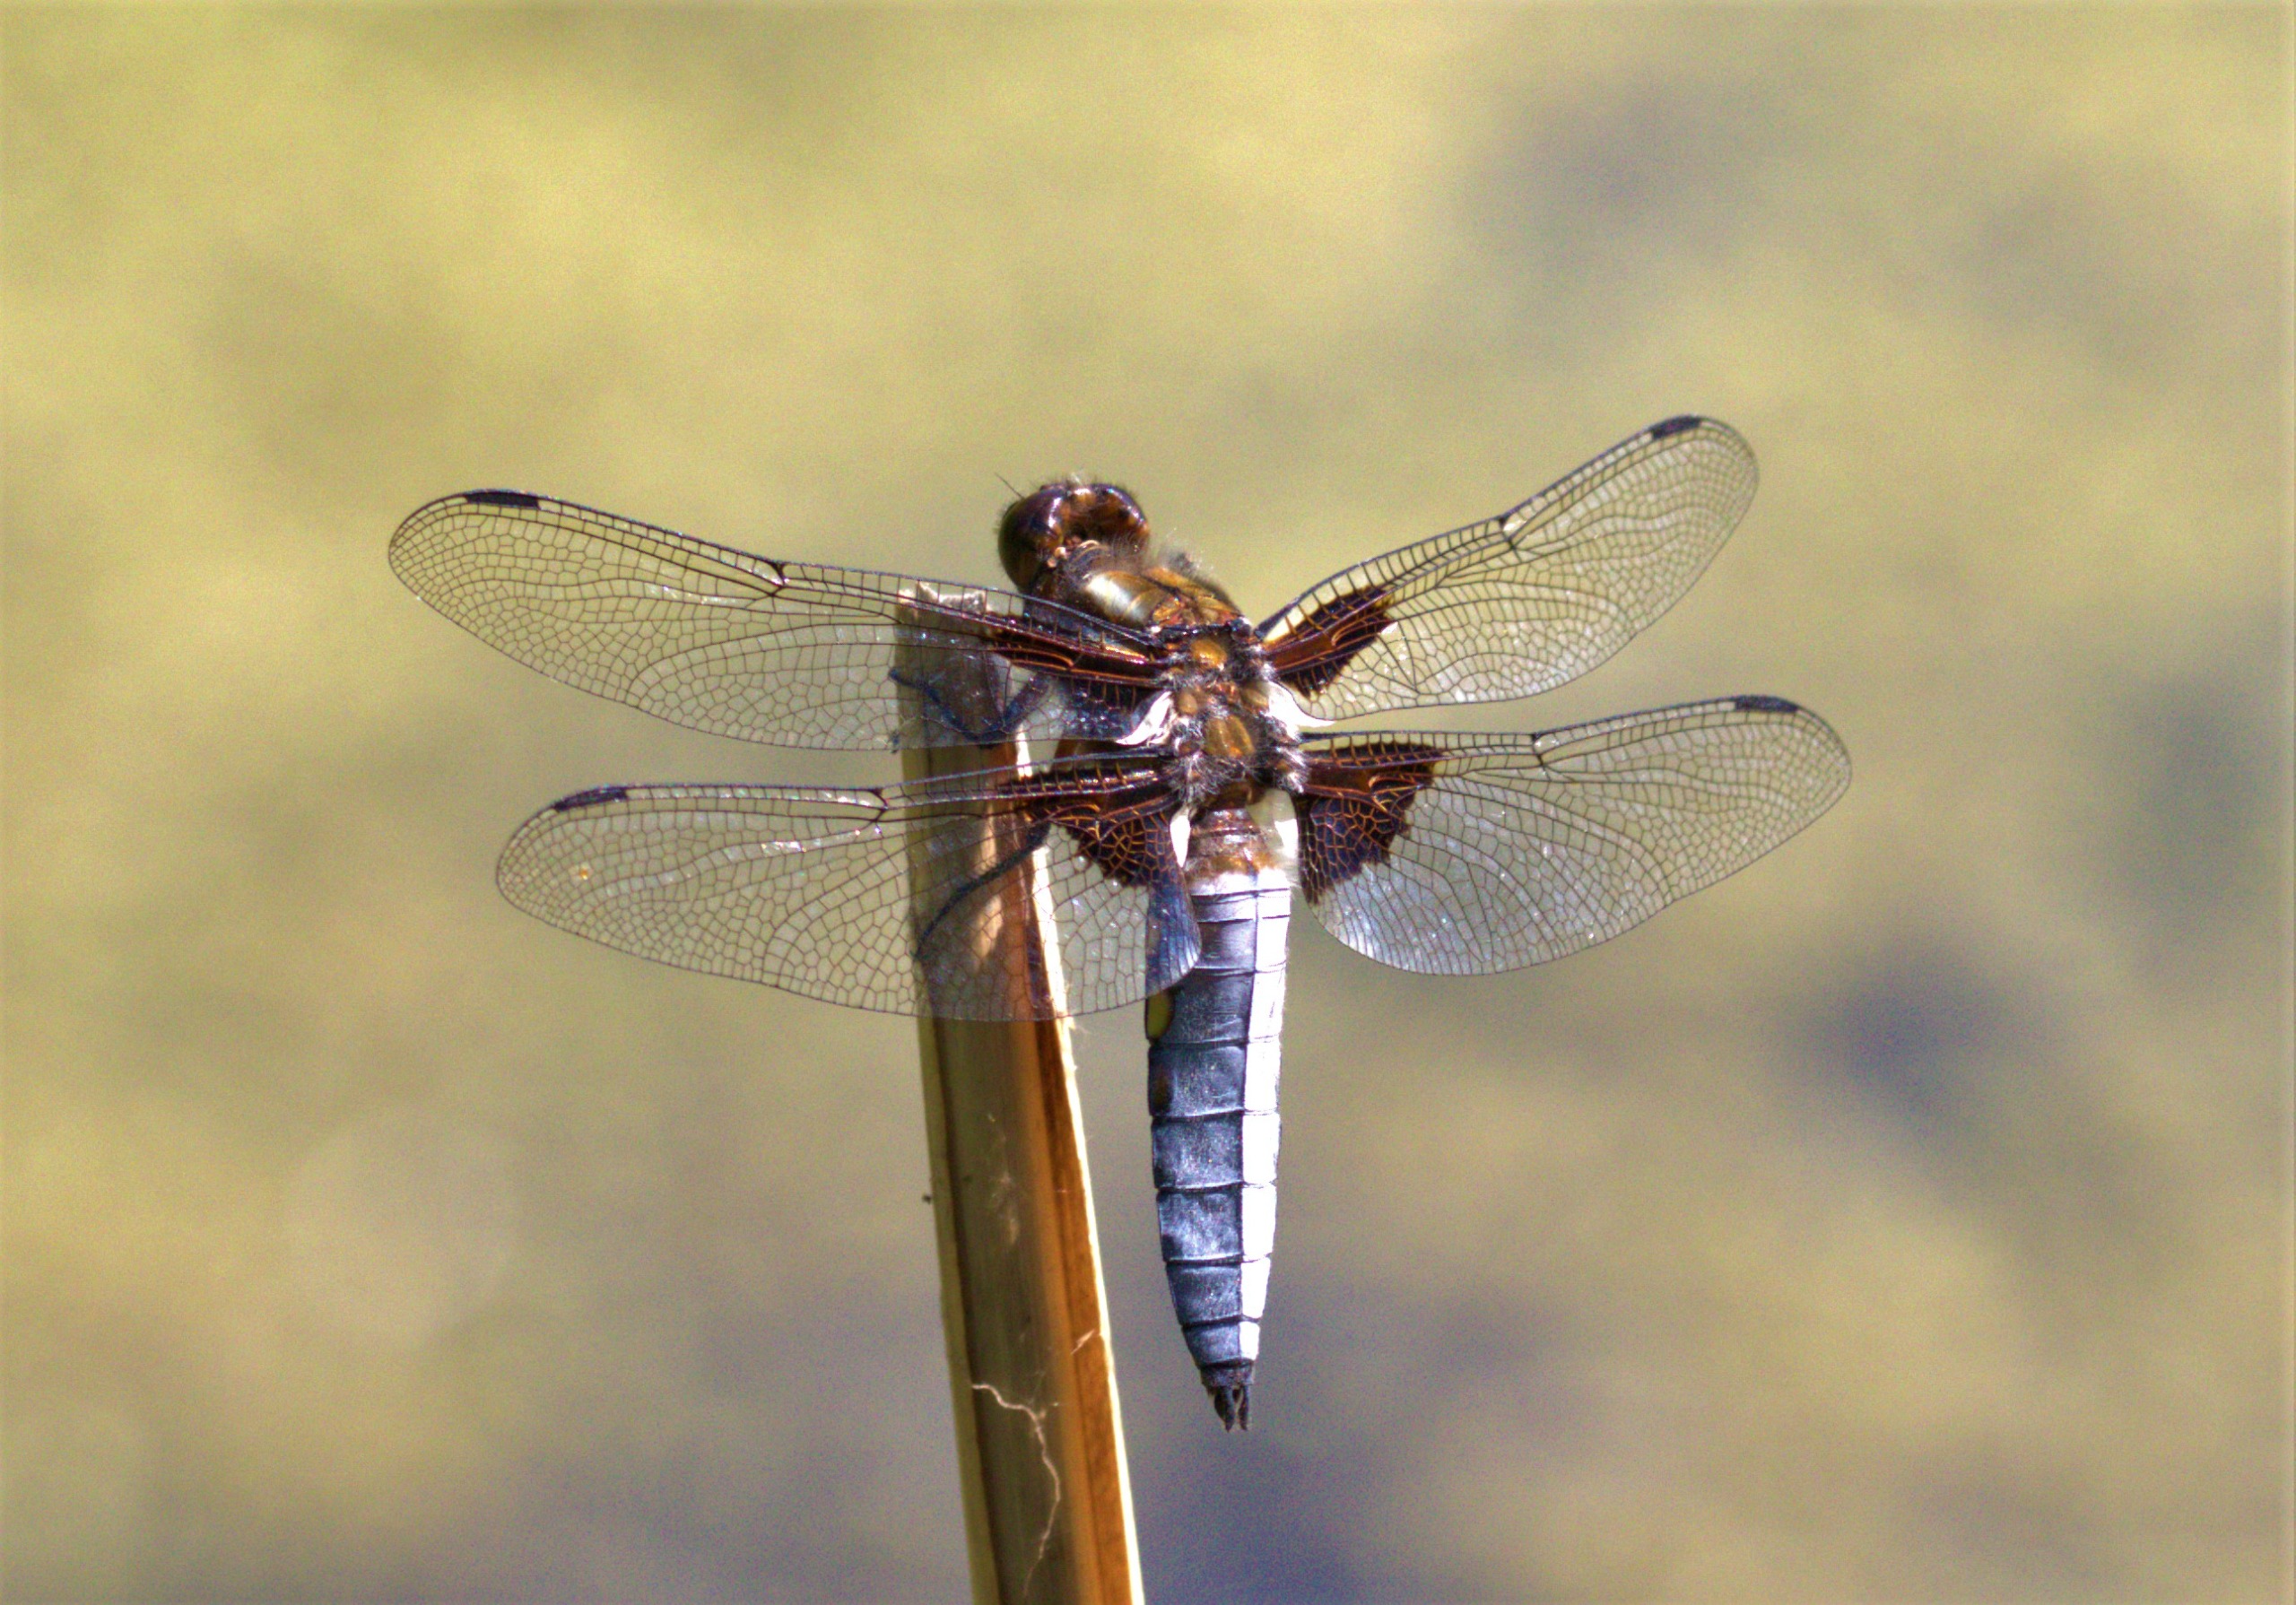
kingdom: Animalia
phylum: Arthropoda
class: Insecta
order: Odonata
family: Libellulidae
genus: Libellula
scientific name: Libellula depressa
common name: Blå libel
